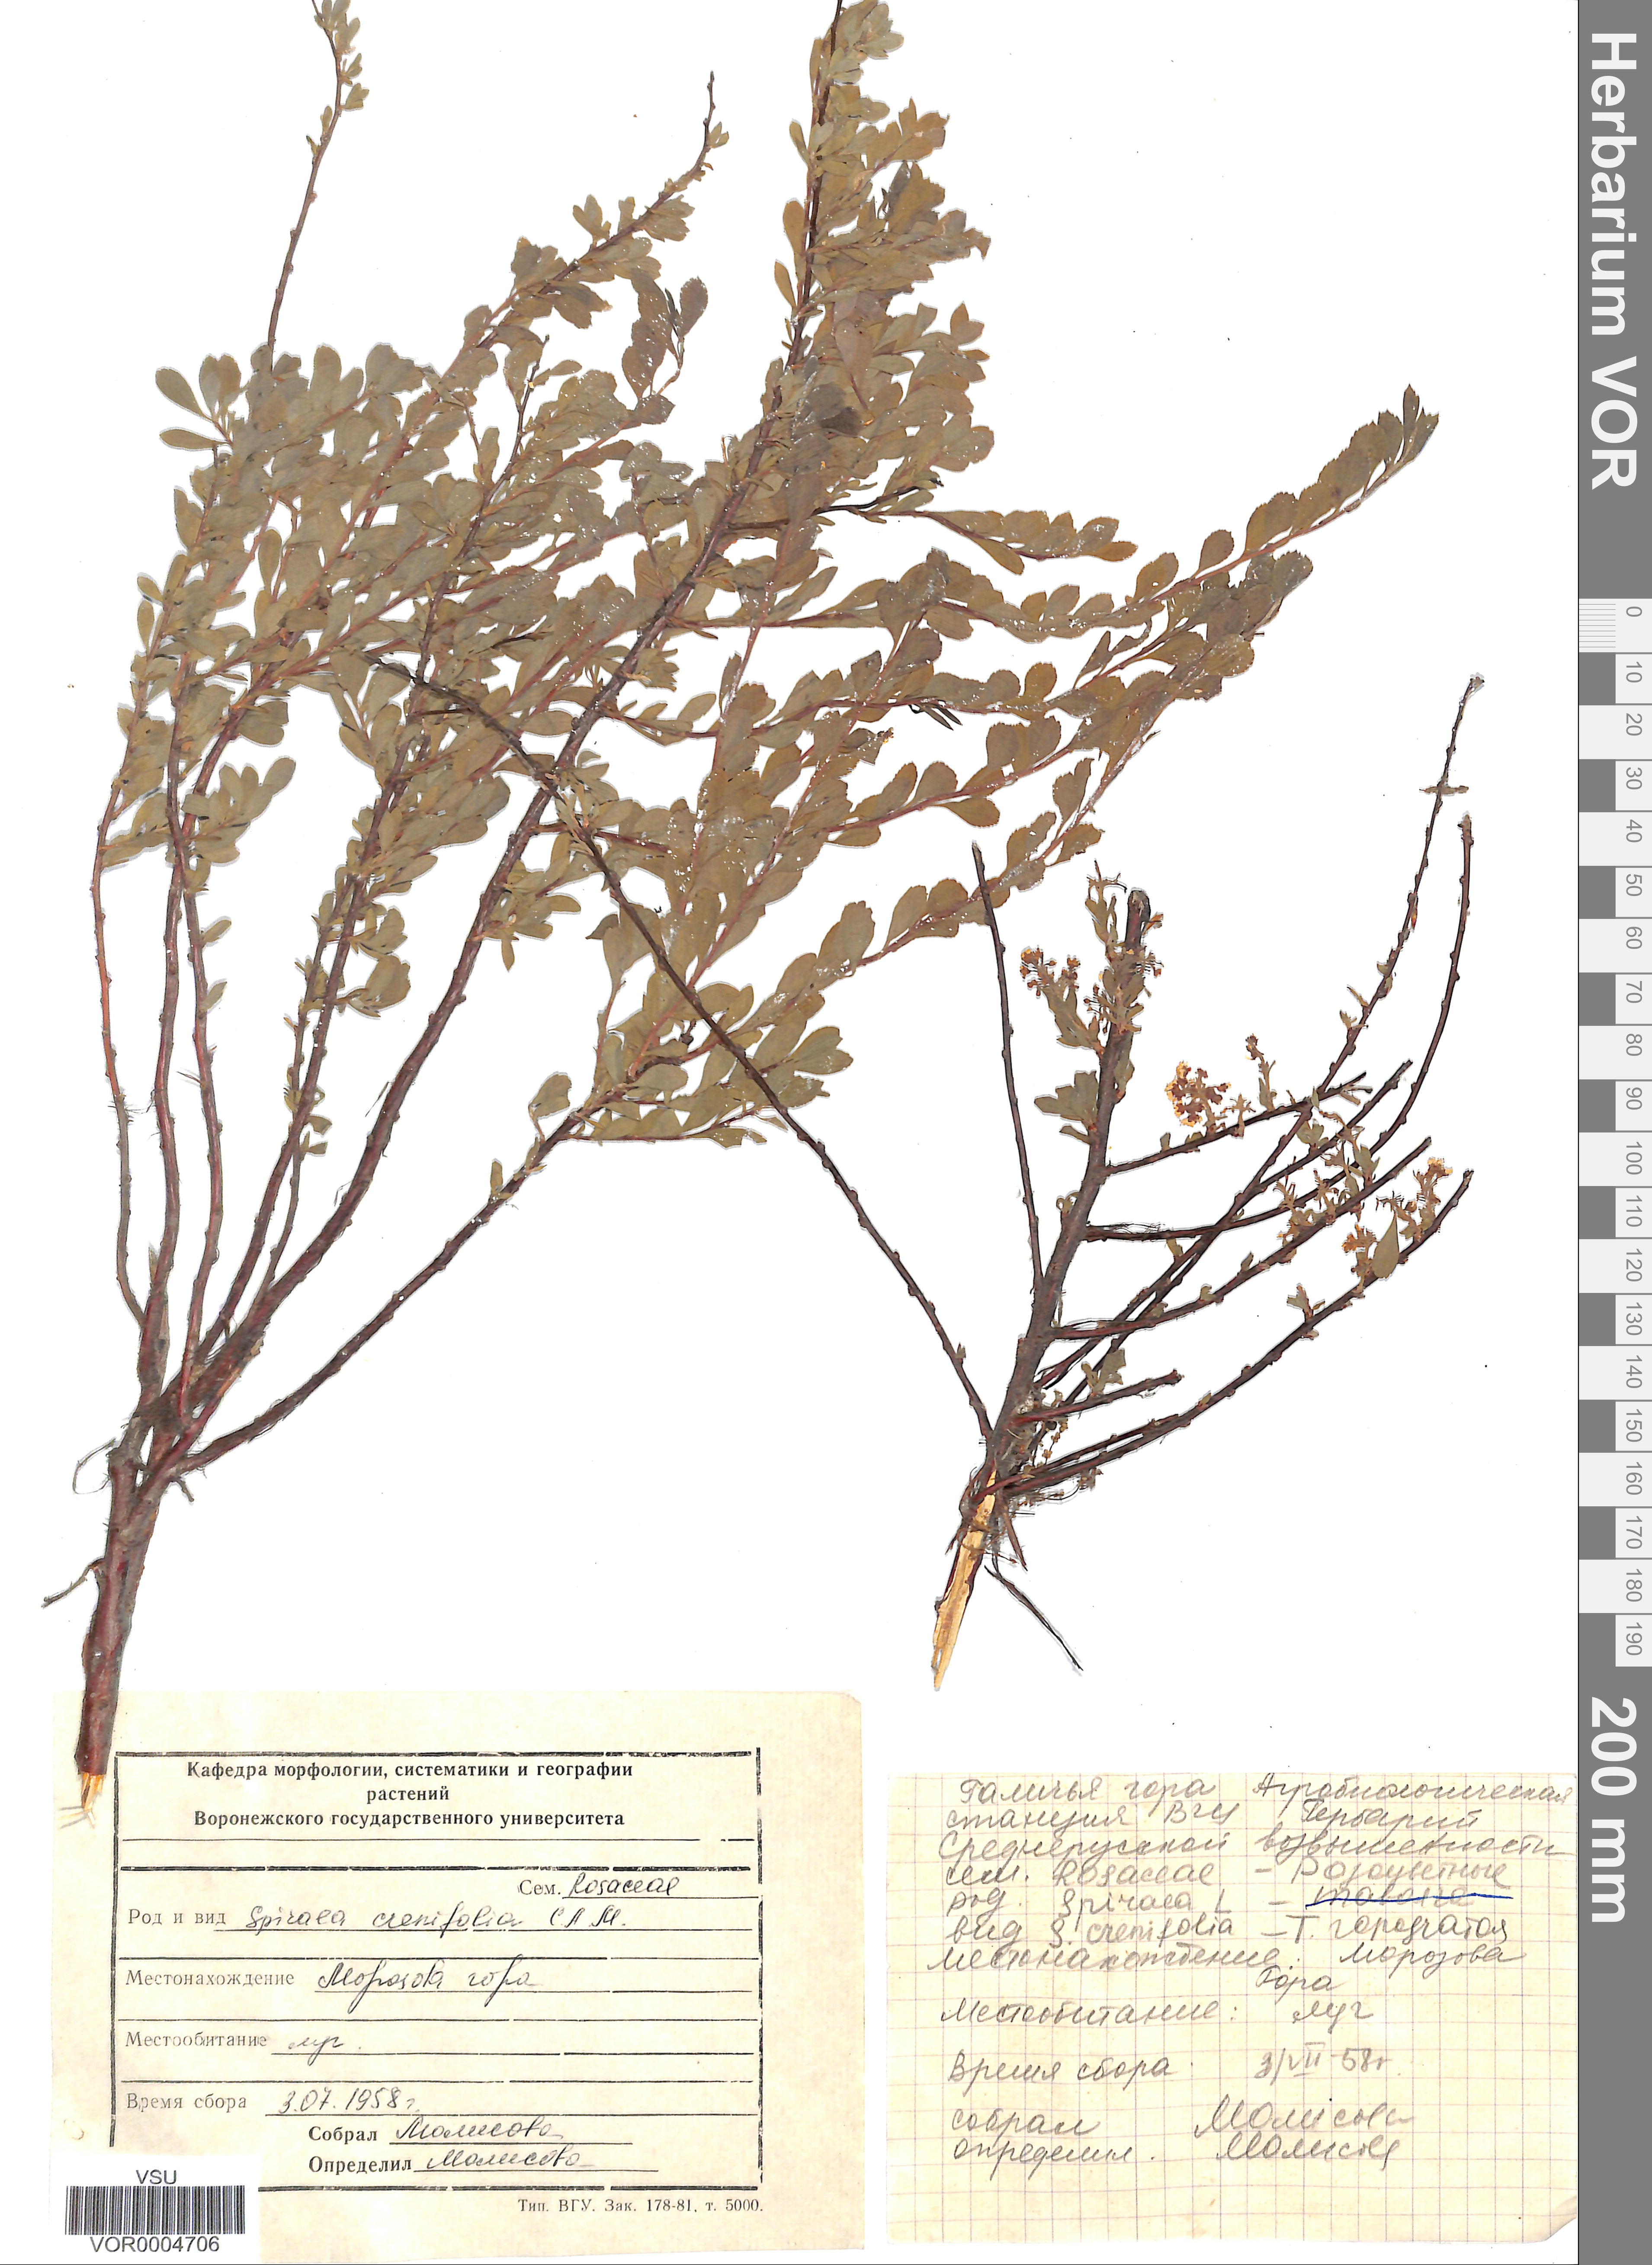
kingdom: Plantae
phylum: Tracheophyta
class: Magnoliopsida
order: Rosales
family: Rosaceae
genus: Spiraea
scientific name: Spiraea crenata
